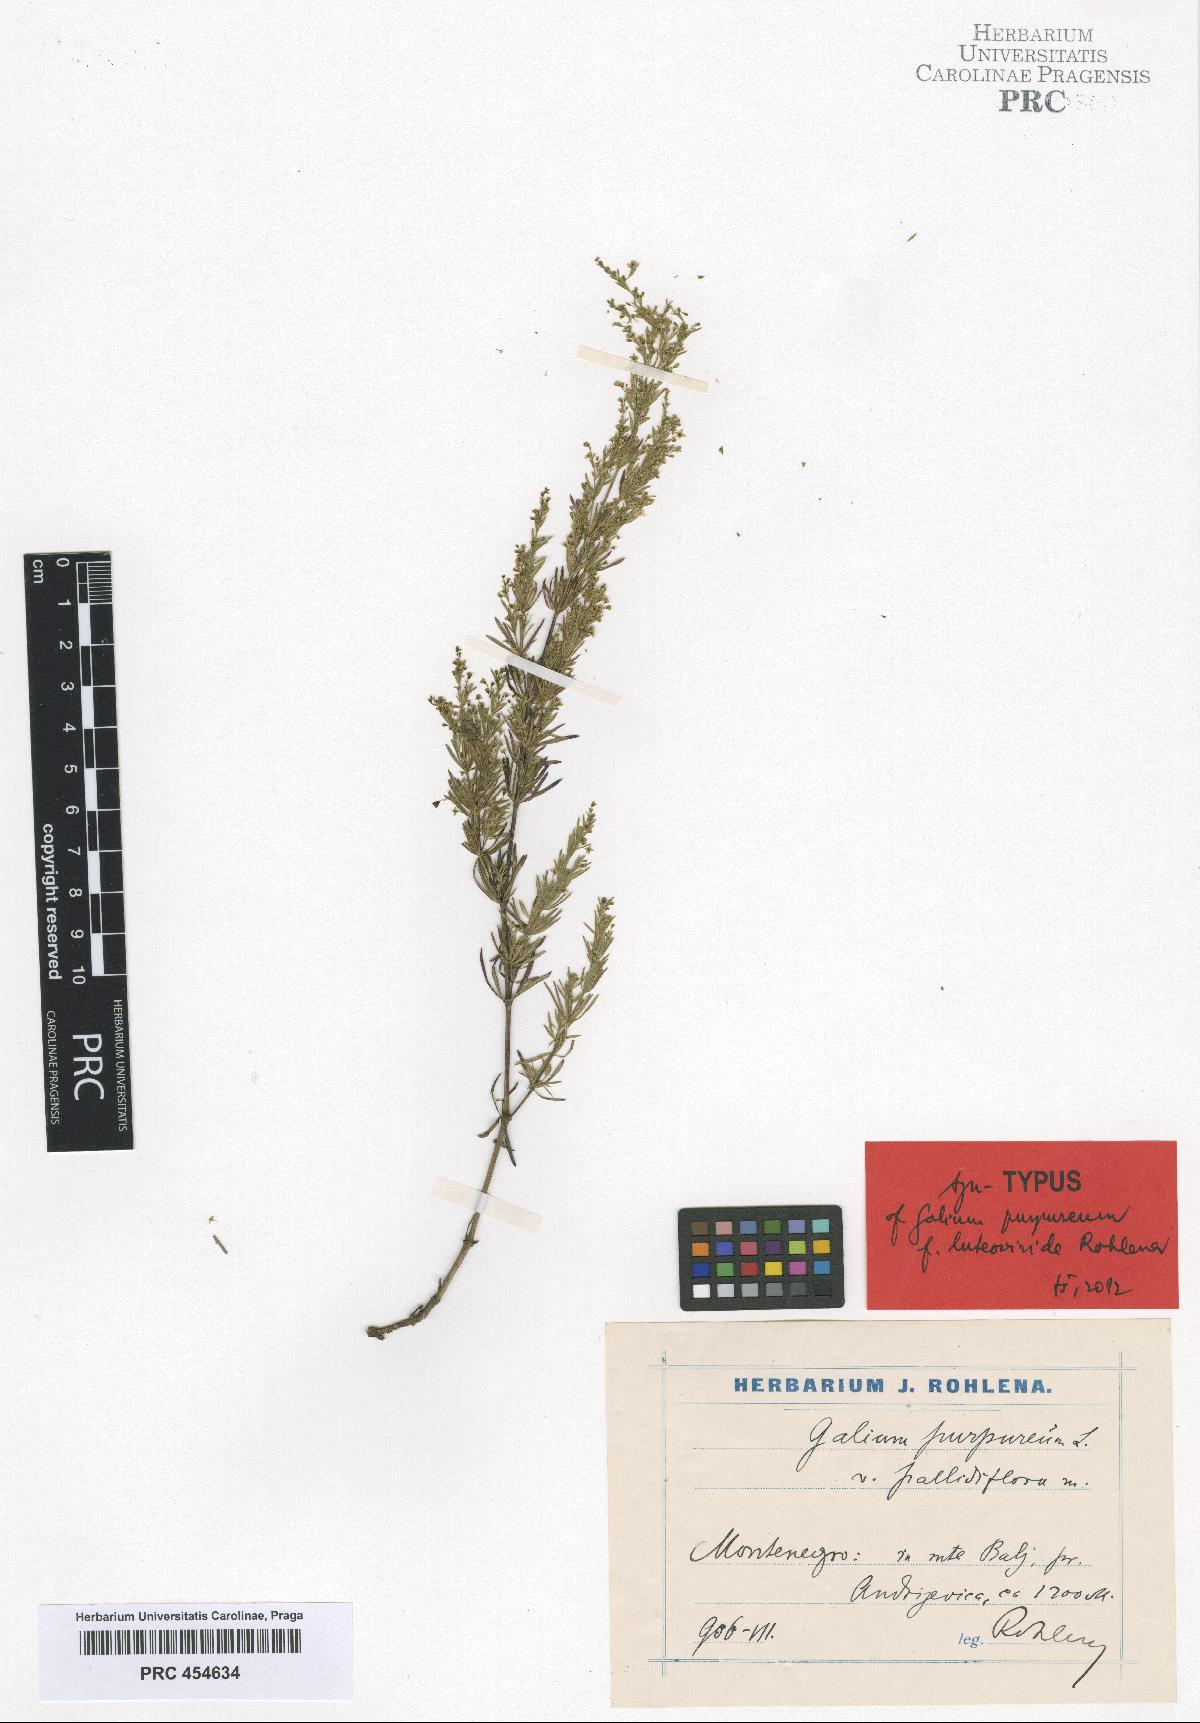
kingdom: Plantae
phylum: Tracheophyta
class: Magnoliopsida
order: Gentianales
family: Rubiaceae
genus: Thliphthisa
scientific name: Thliphthisa purpurea
